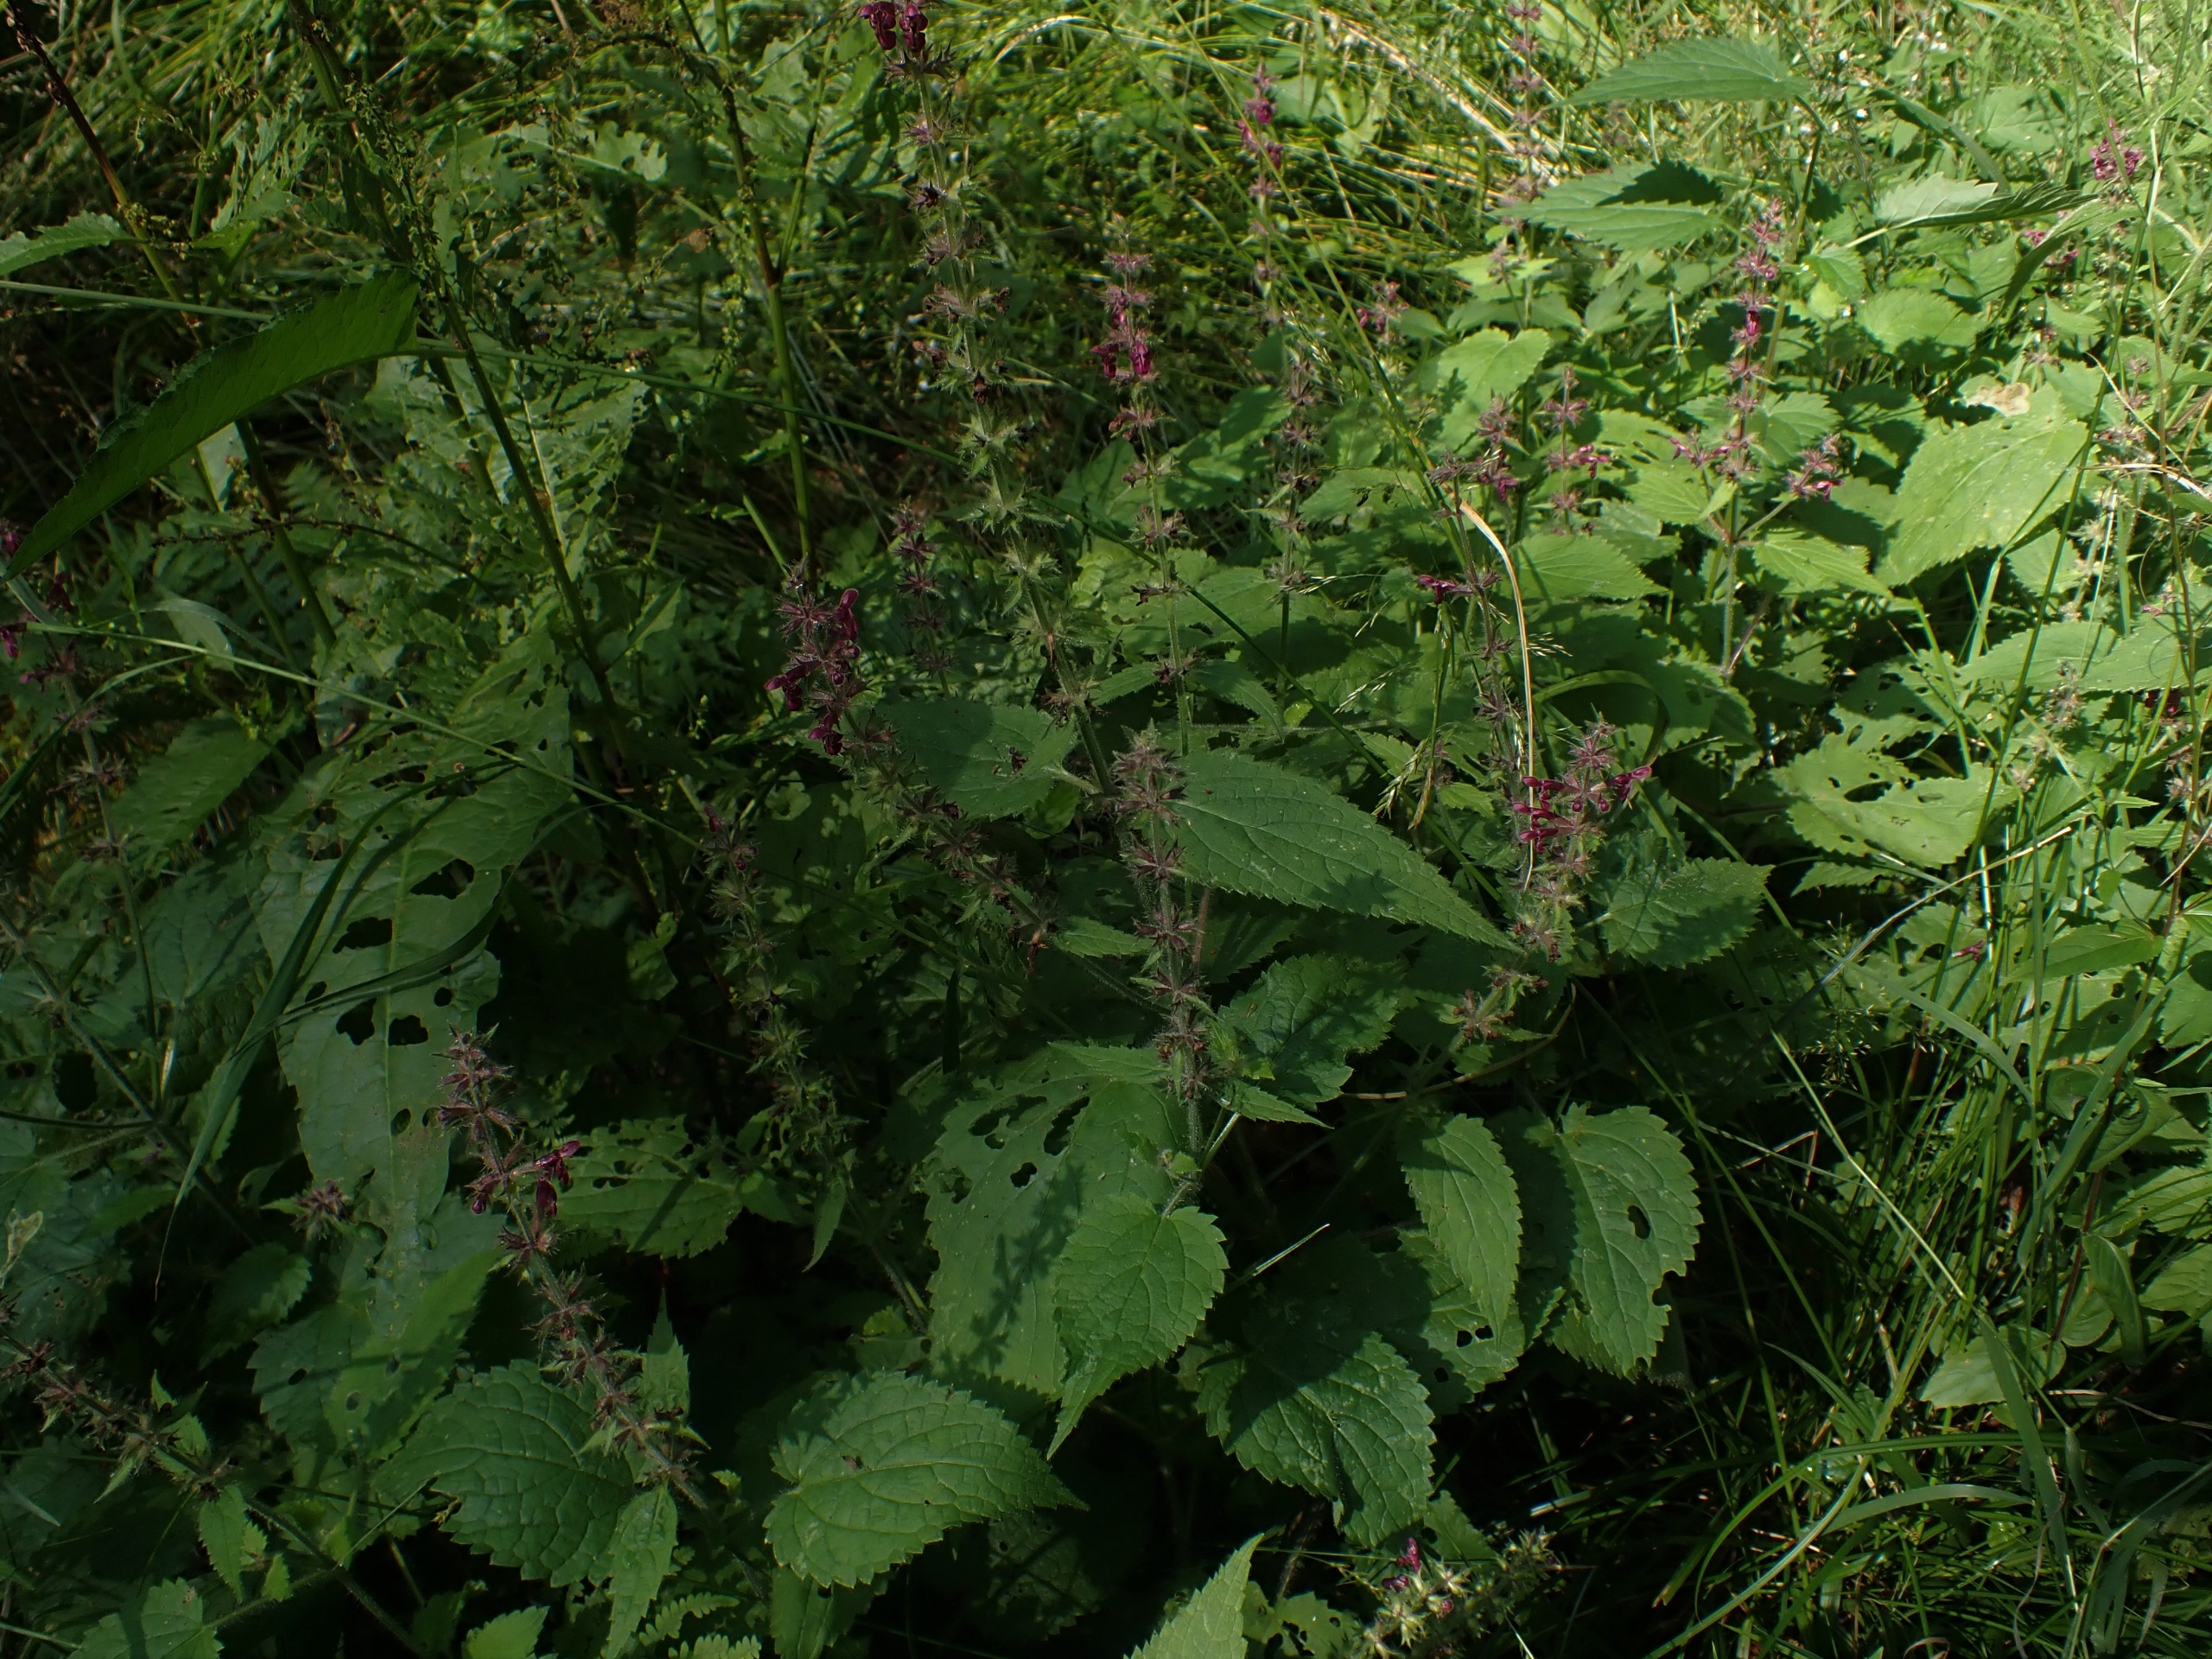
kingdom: Plantae
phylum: Tracheophyta
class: Magnoliopsida
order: Lamiales
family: Lamiaceae
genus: Stachys
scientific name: Stachys sylvatica
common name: Skov-galtetand
